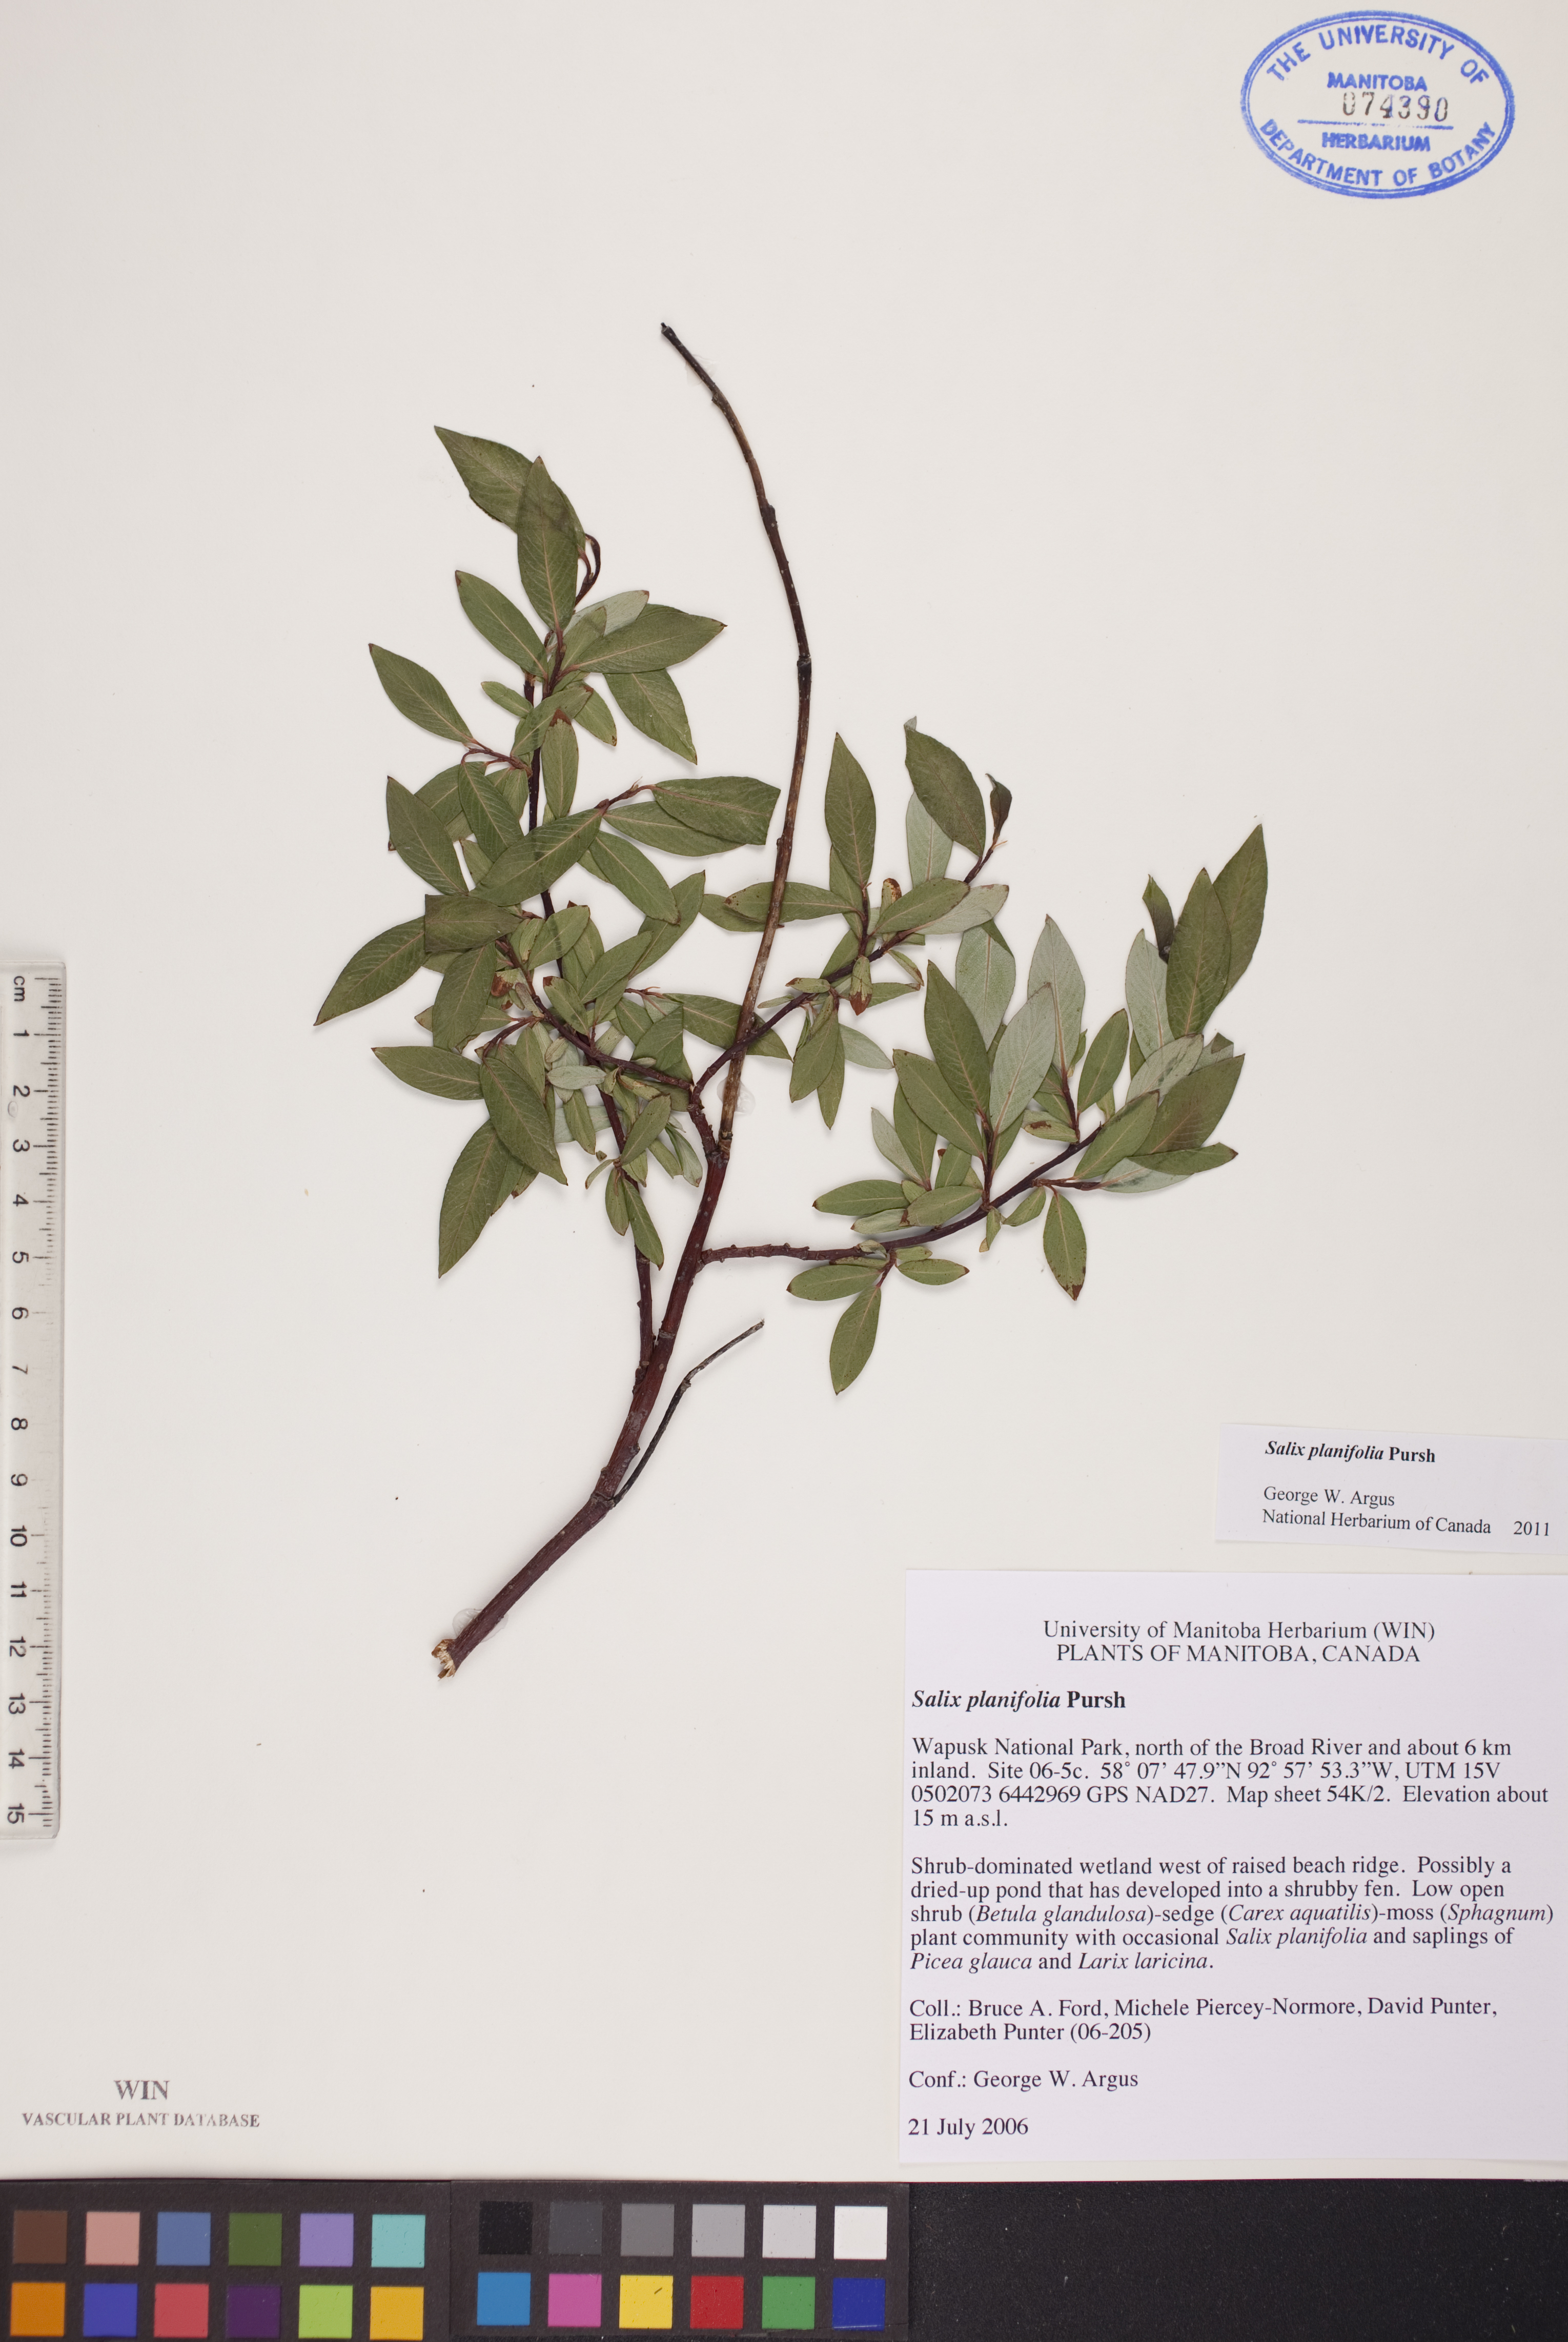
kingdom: Plantae
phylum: Tracheophyta
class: Magnoliopsida
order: Malpighiales
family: Salicaceae
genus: Salix
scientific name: Salix planifolia
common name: Mountain willow
